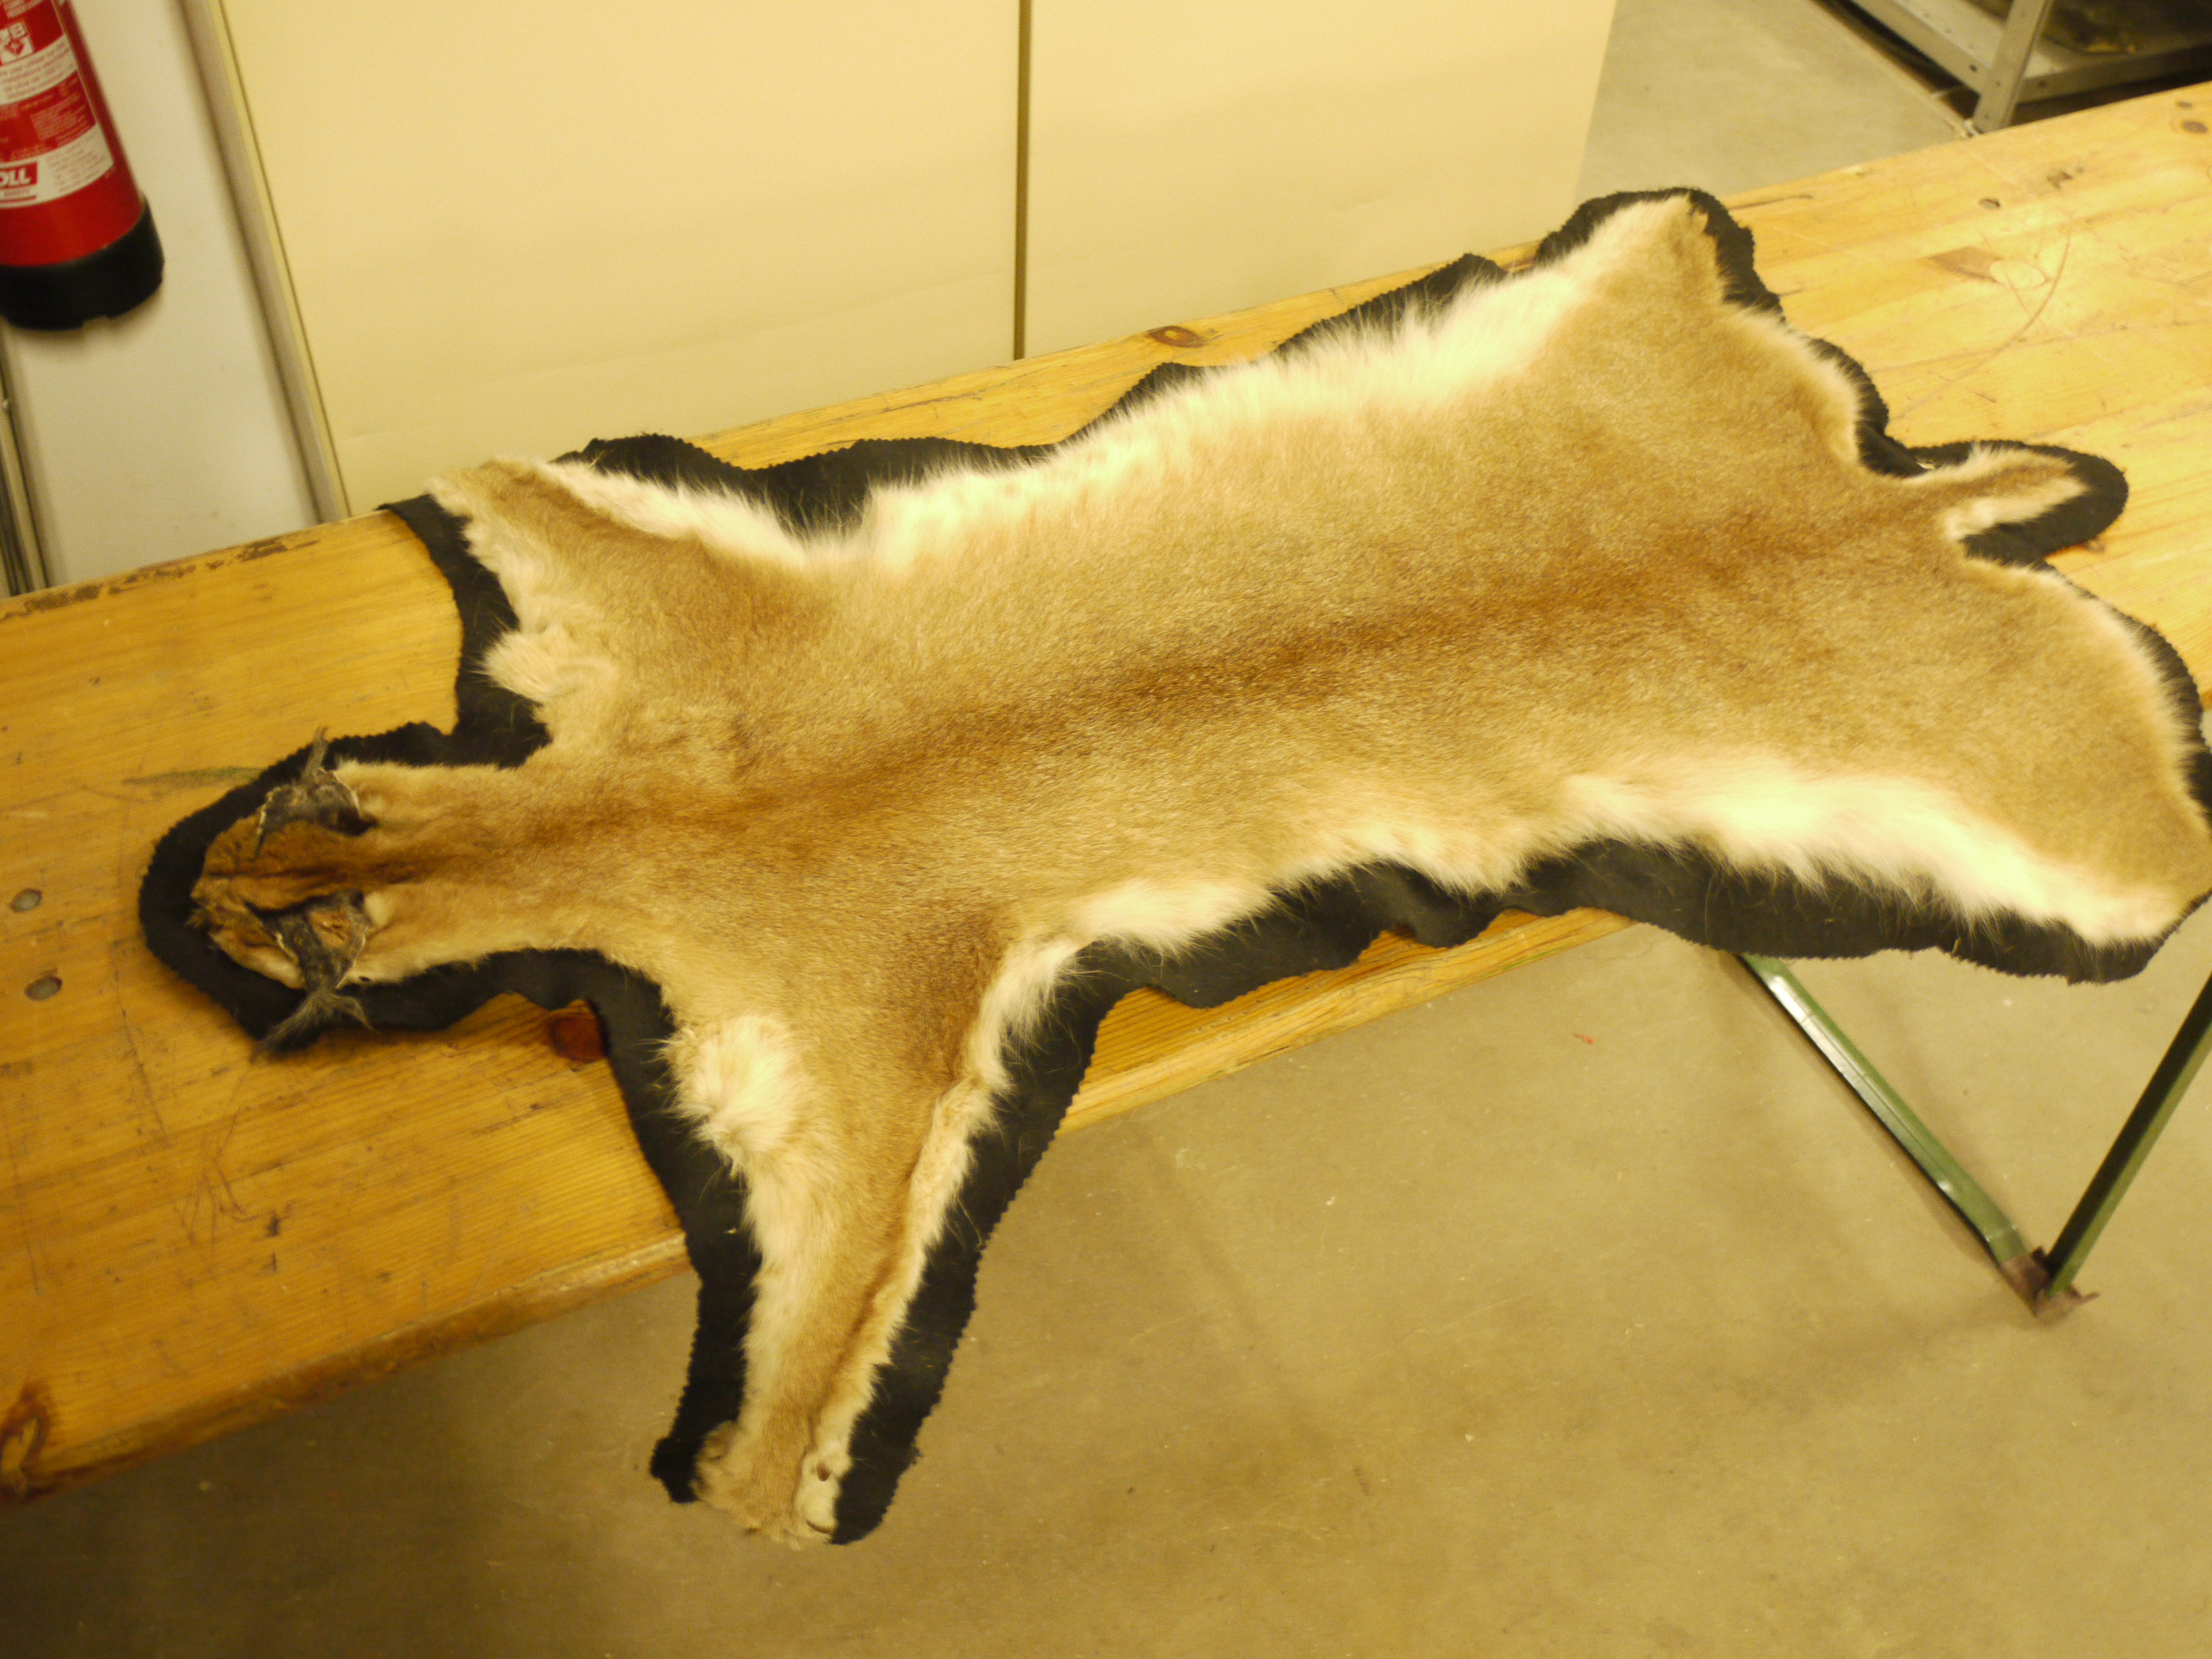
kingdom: Animalia
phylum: Chordata
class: Mammalia
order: Carnivora
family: Felidae
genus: Caracal
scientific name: Caracal caracal
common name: Caracal
